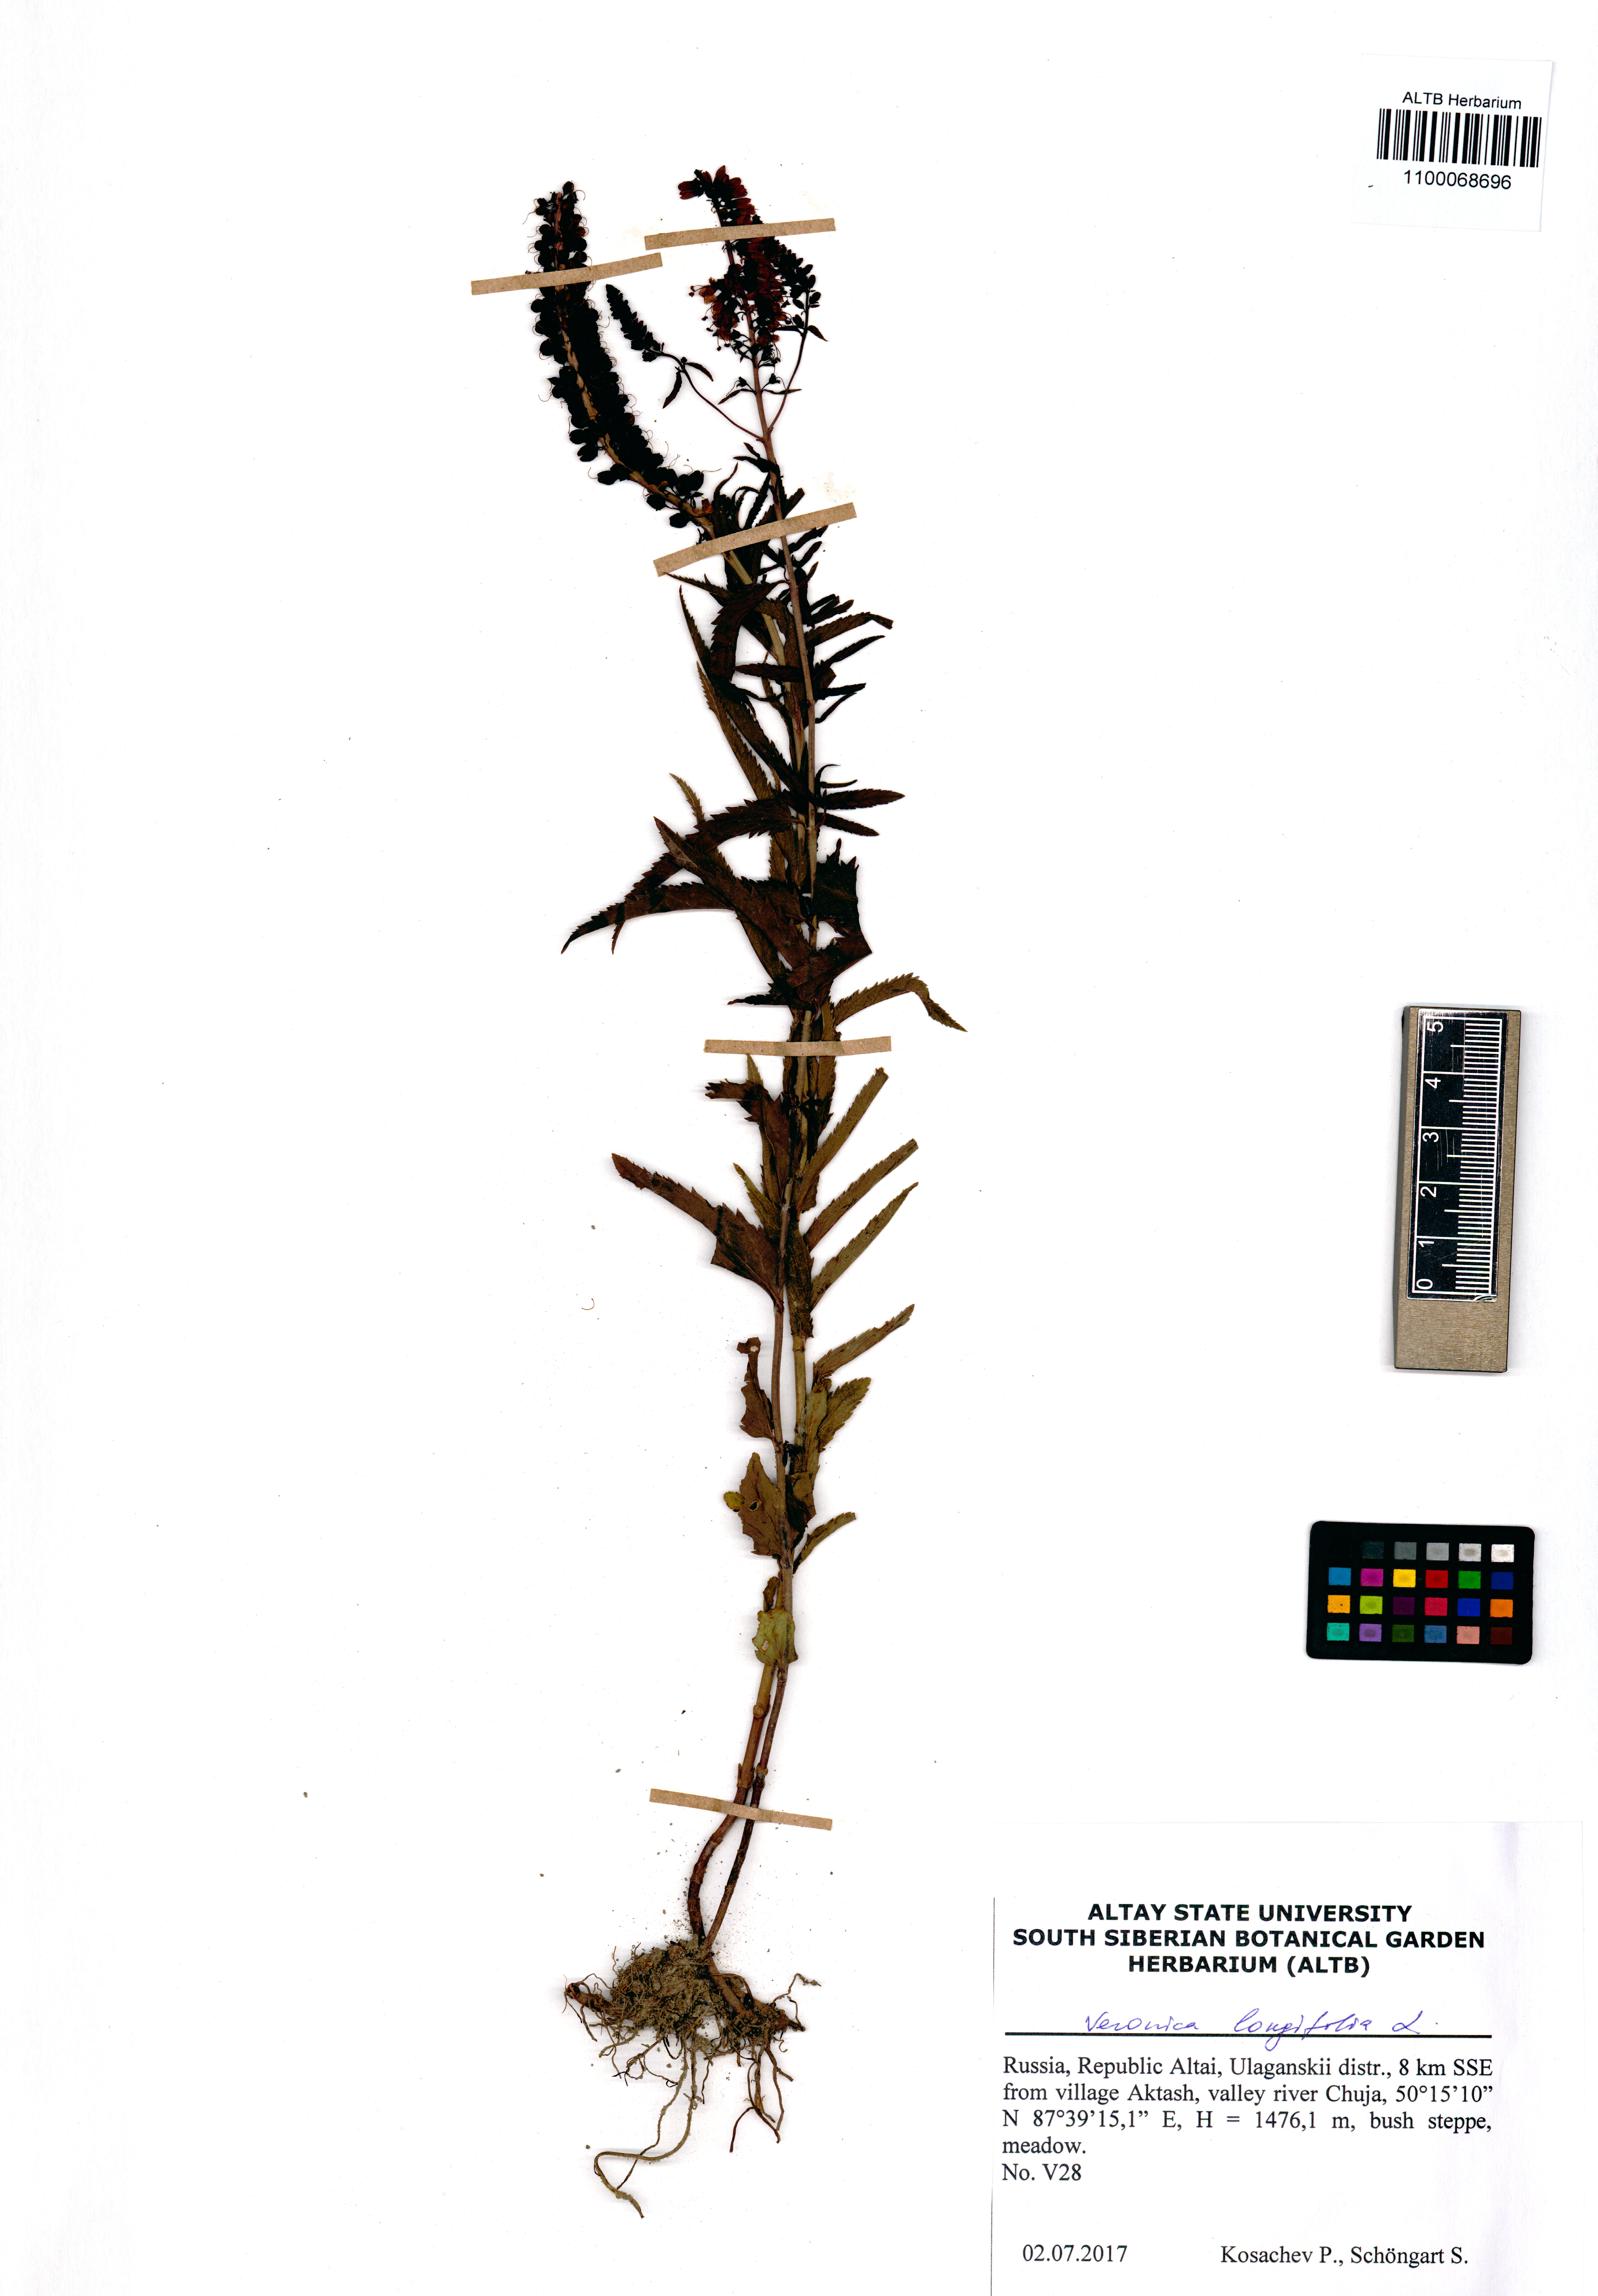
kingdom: Plantae
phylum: Tracheophyta
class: Magnoliopsida
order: Lamiales
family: Plantaginaceae
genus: Veronica
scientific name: Veronica longifolia
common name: Garden speedwell
